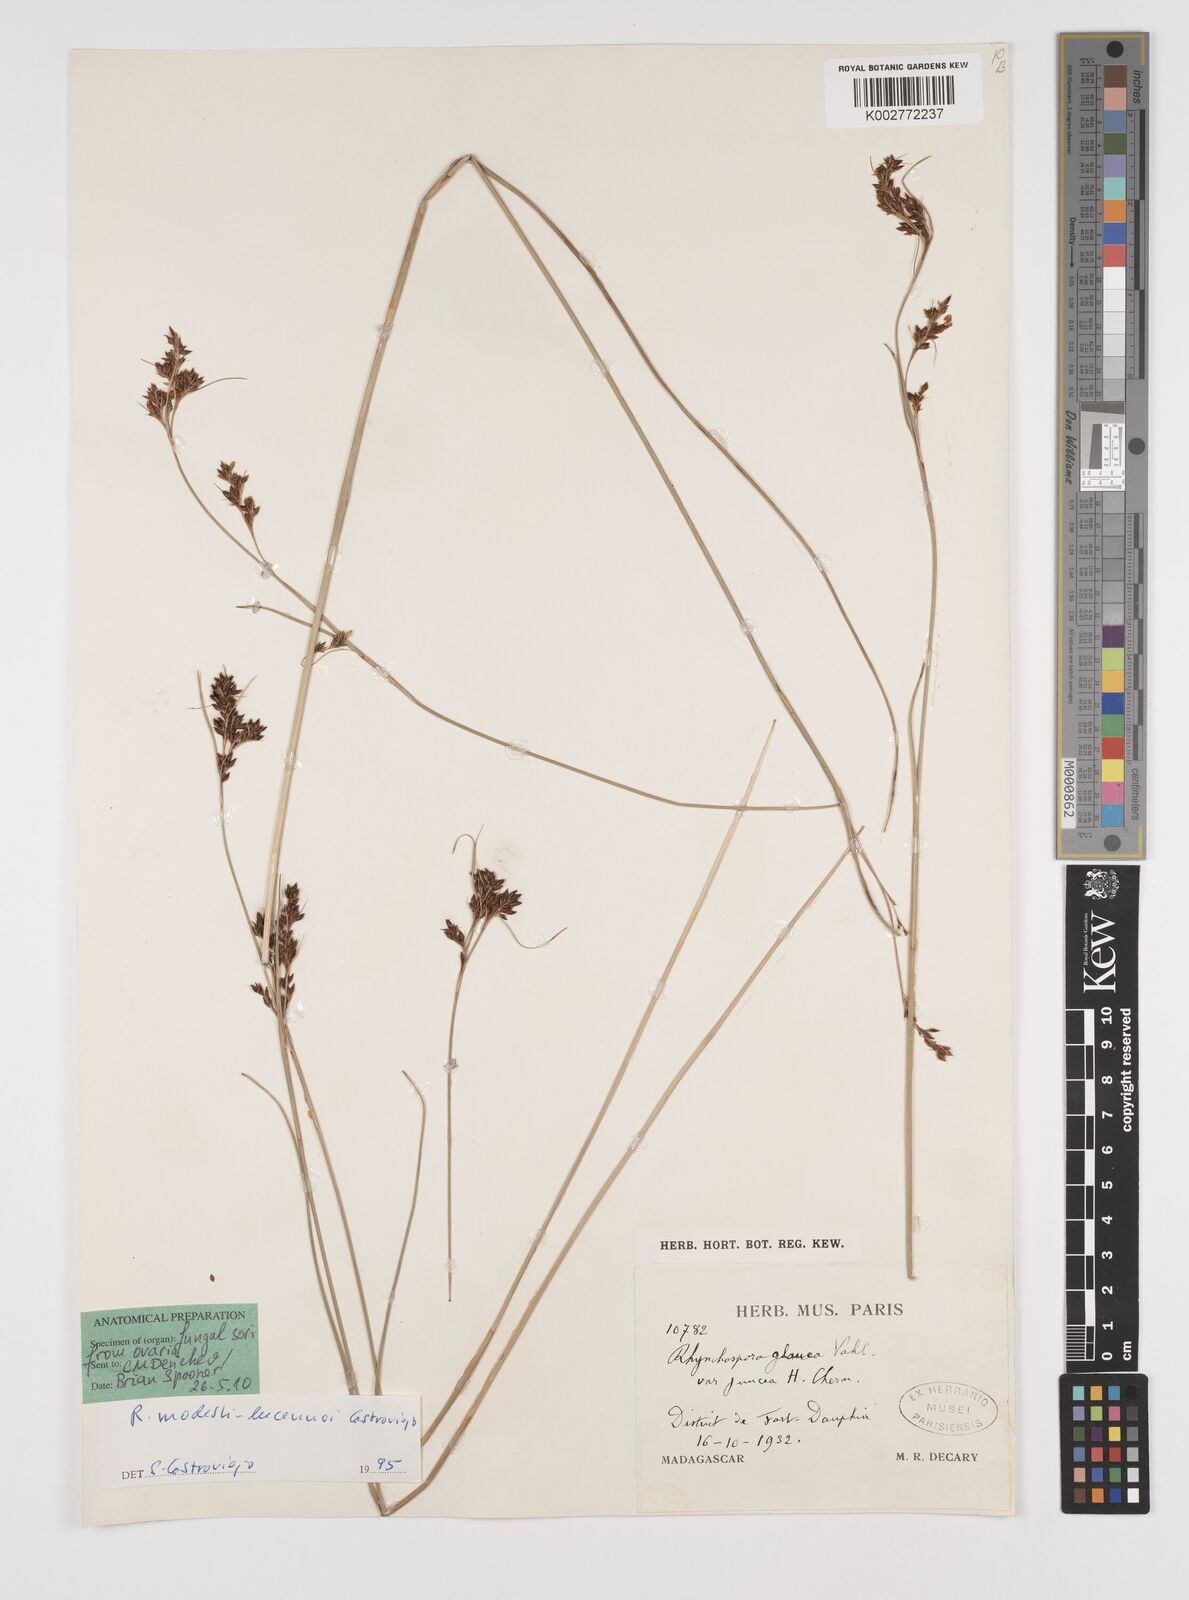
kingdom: Plantae
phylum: Tracheophyta
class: Liliopsida
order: Poales
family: Cyperaceae
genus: Rhynchospora
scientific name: Rhynchospora modesti-lucennoi
